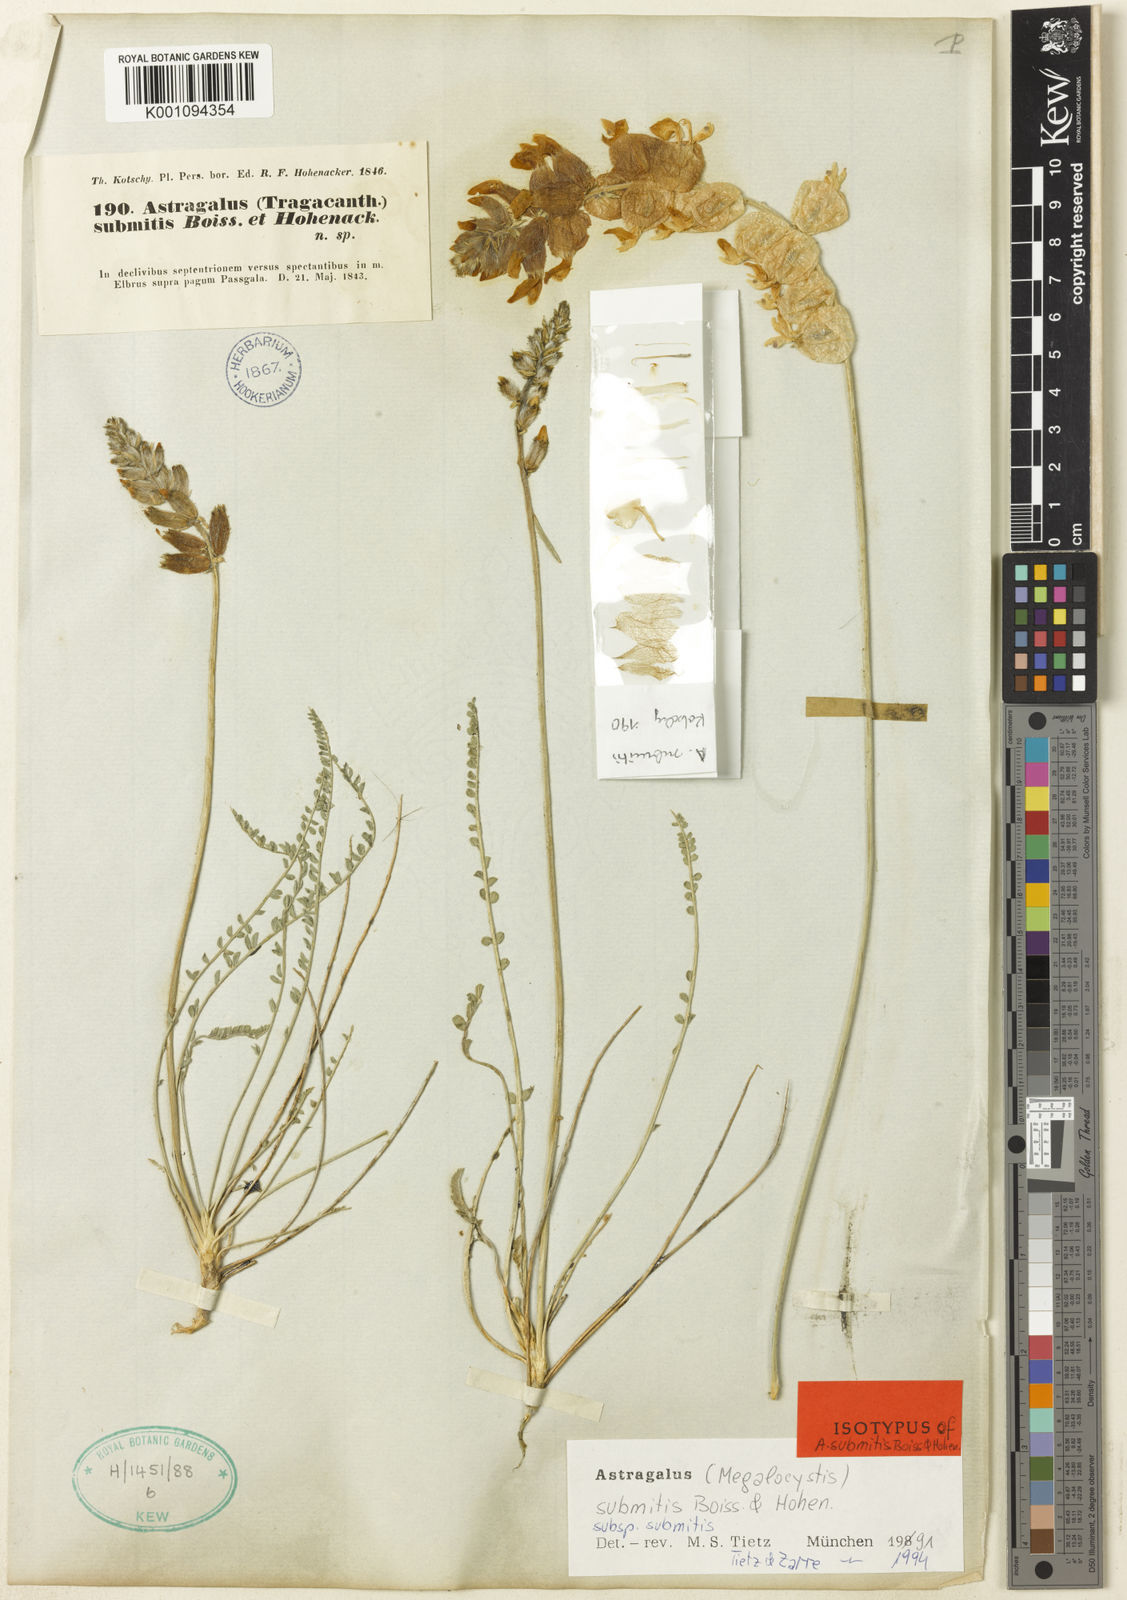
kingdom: Plantae
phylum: Tracheophyta
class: Magnoliopsida
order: Fabales
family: Fabaceae
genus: Astragalus
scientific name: Astragalus
